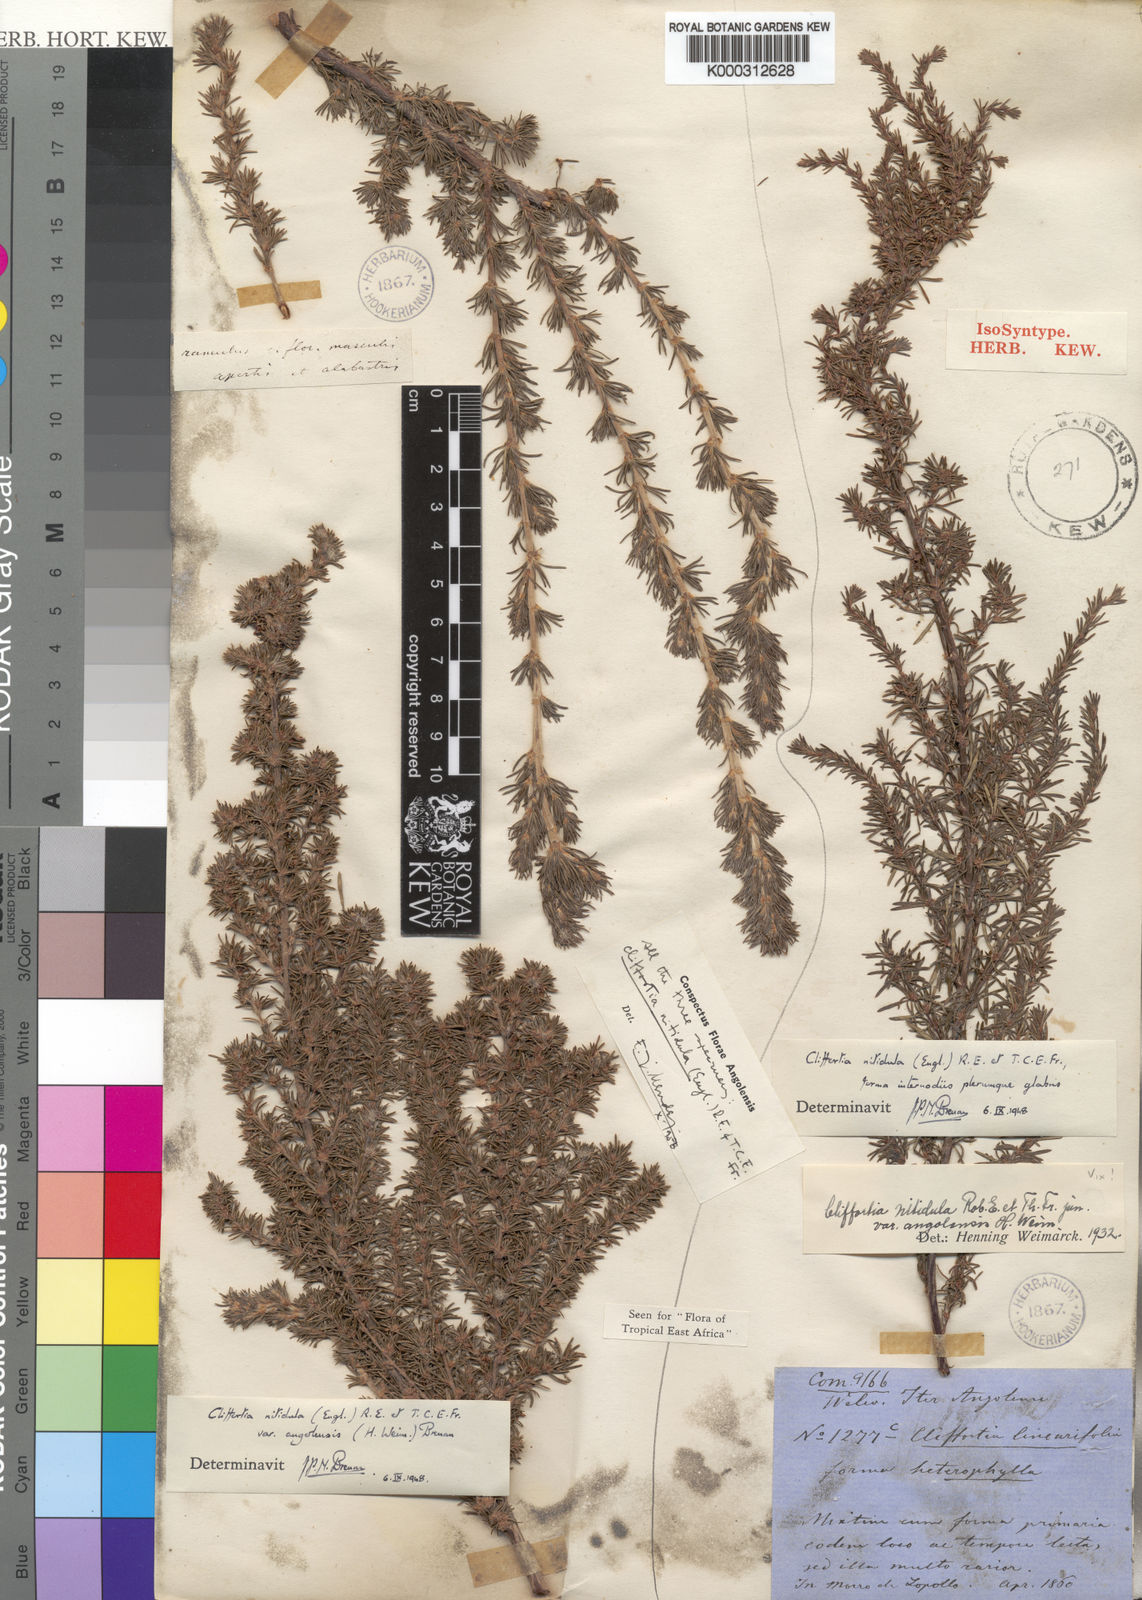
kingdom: Plantae
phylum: Tracheophyta
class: Magnoliopsida
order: Rosales
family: Rosaceae
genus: Cliffortia
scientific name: Cliffortia linearifolia
